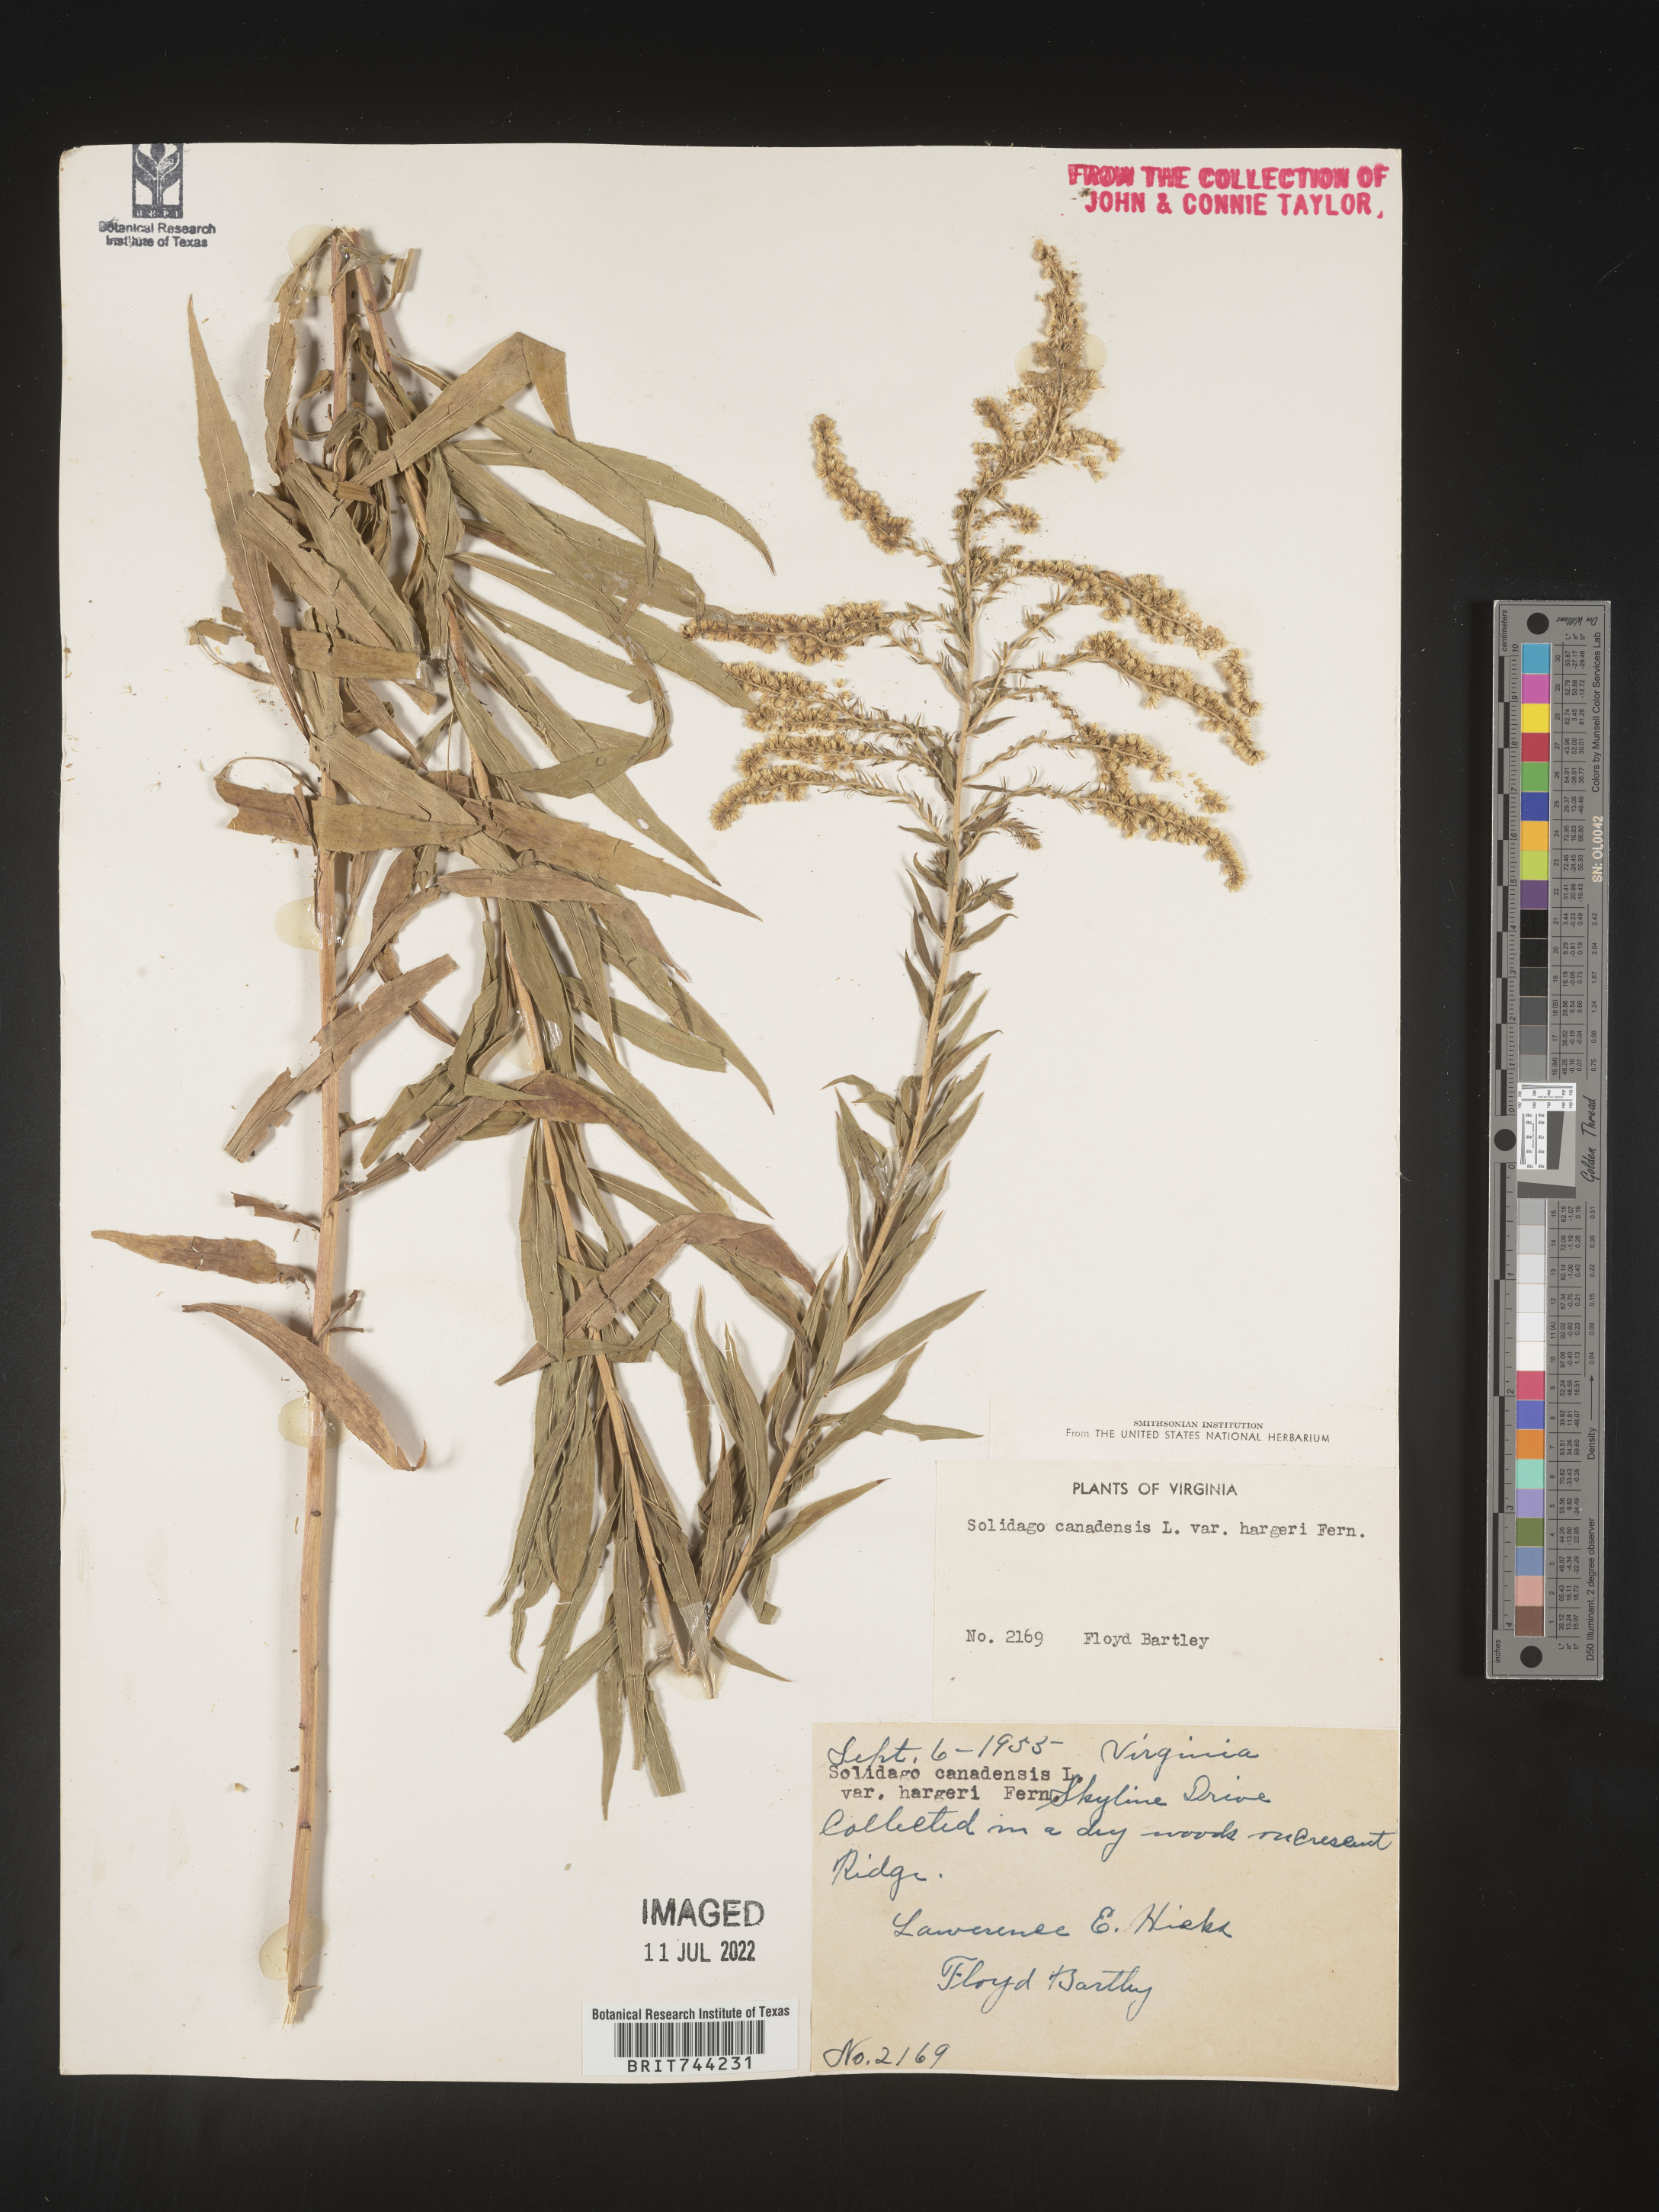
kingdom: Plantae
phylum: Tracheophyta
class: Magnoliopsida
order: Asterales
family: Asteraceae
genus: Solidago
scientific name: Solidago altissima
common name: Late goldenrod
